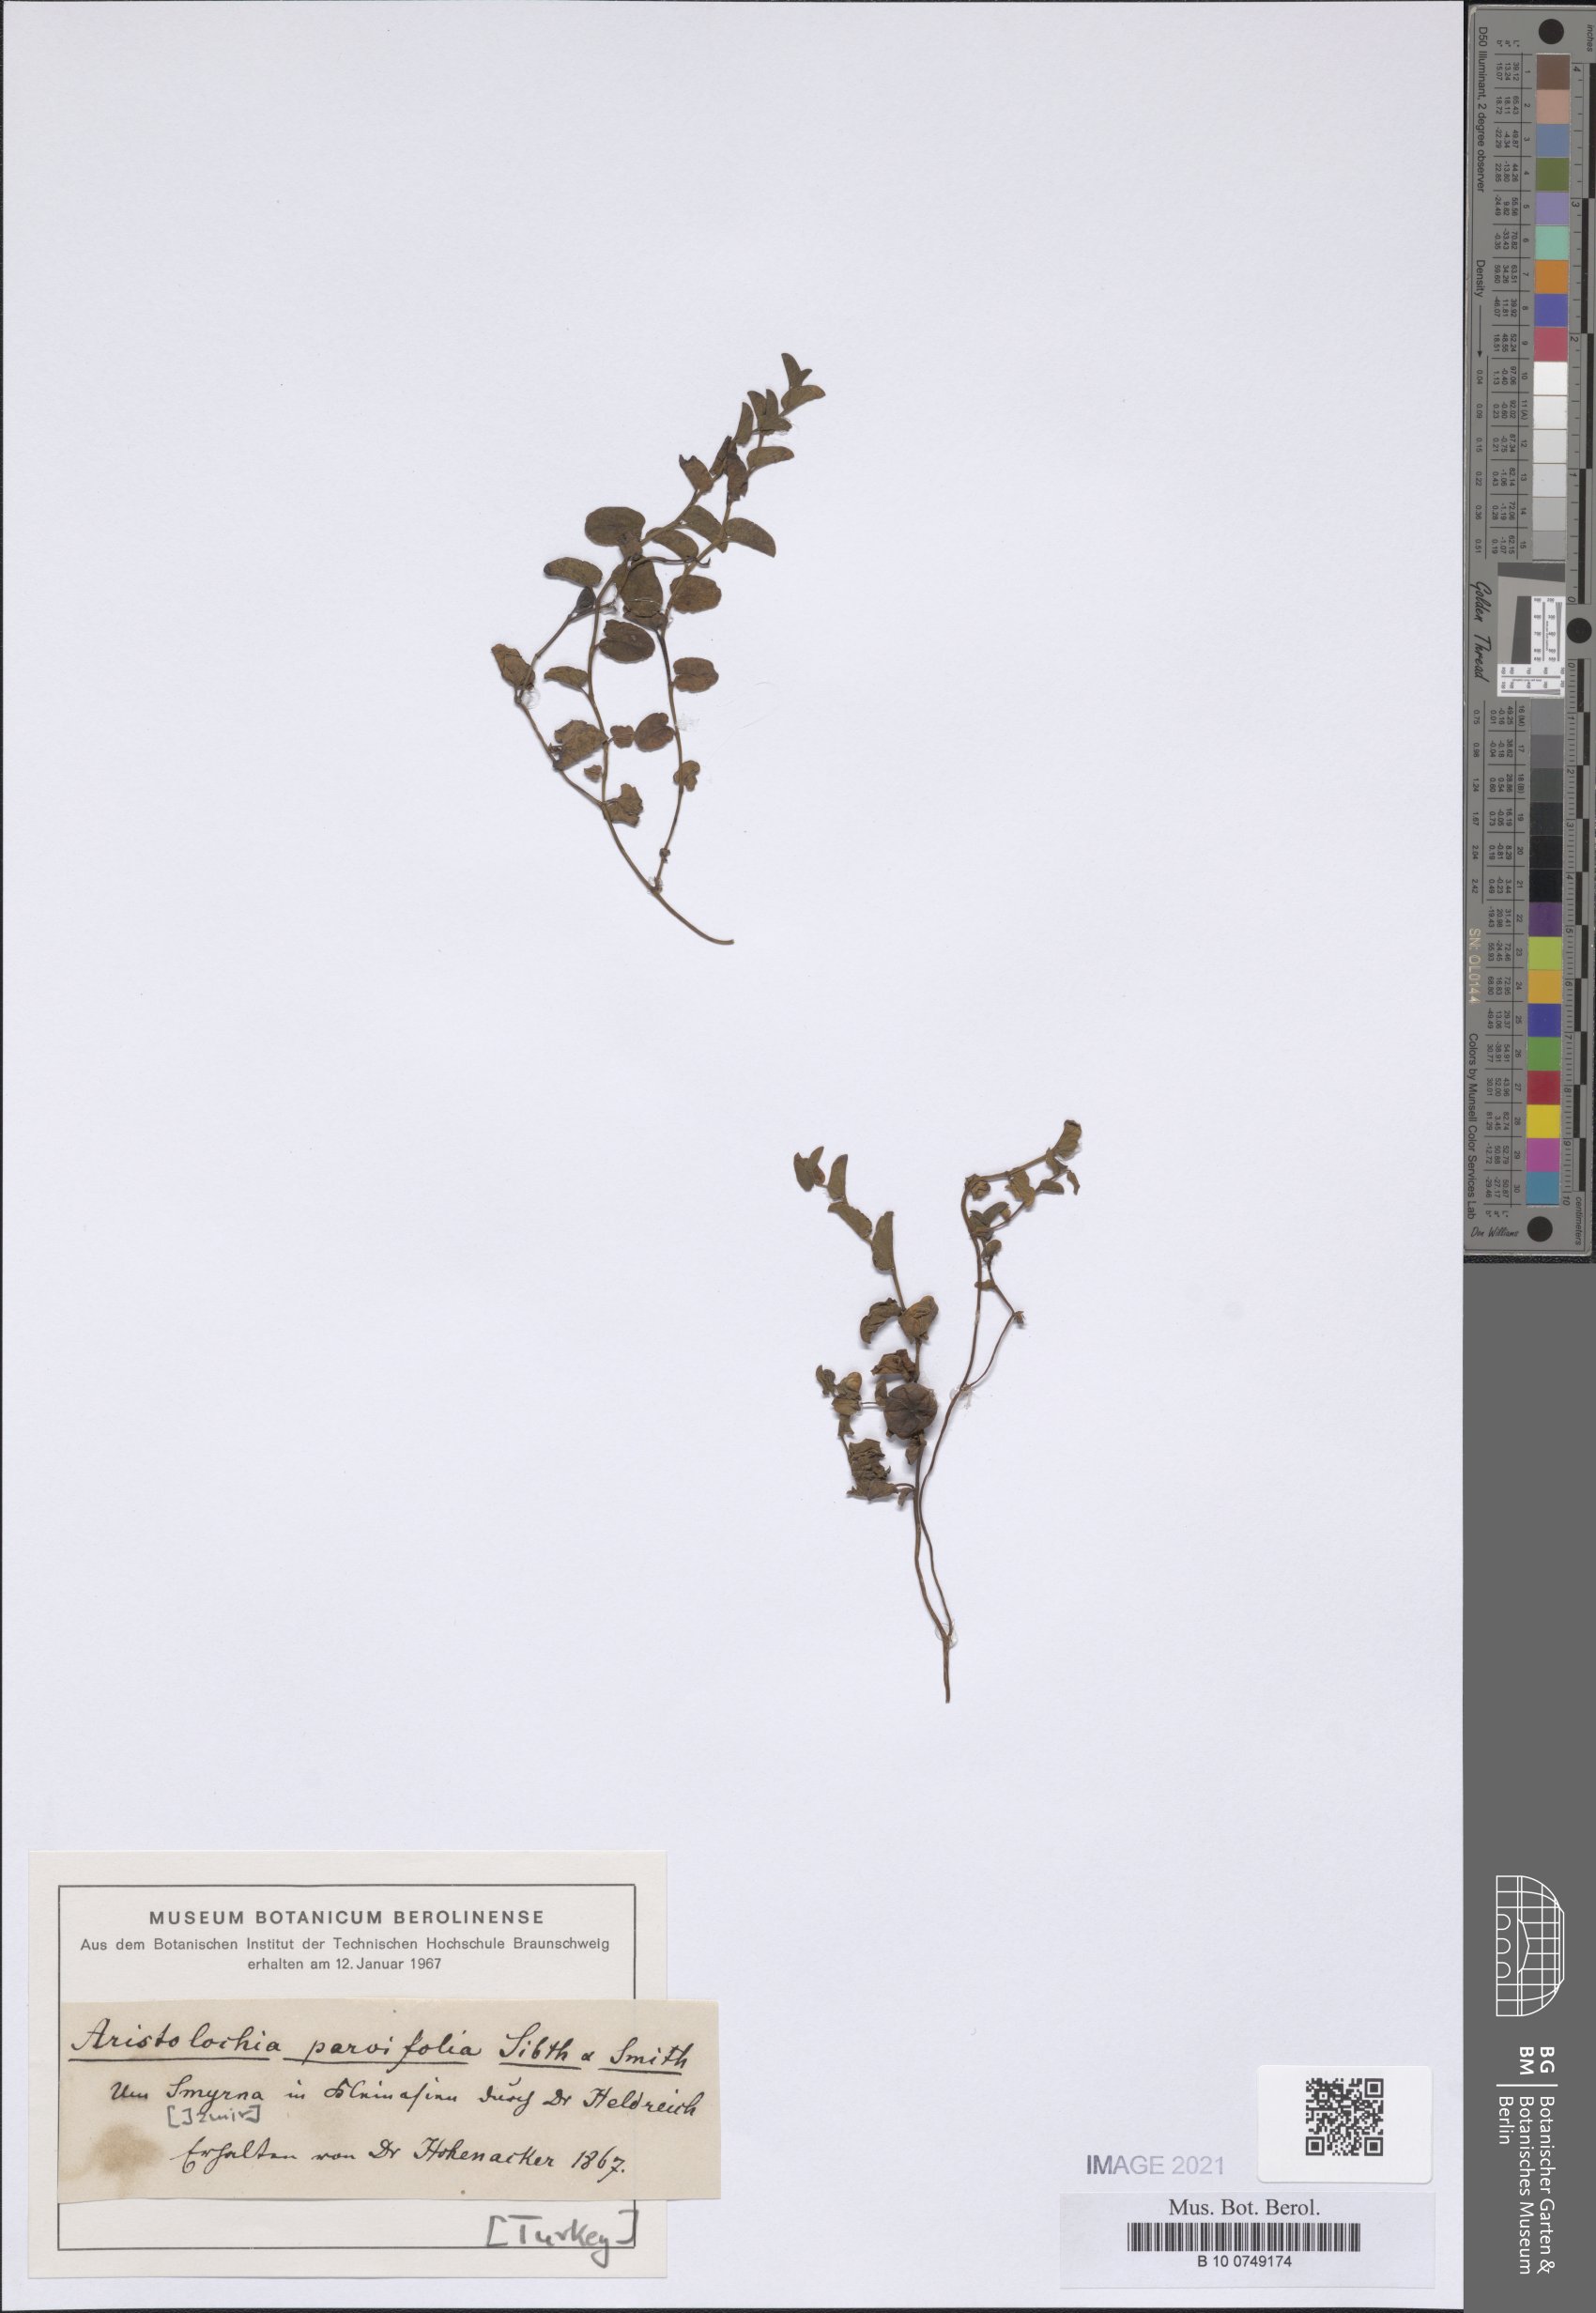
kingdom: Plantae
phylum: Tracheophyta
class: Magnoliopsida
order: Piperales
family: Aristolochiaceae
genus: Aristolochia
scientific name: Aristolochia parvifolia
